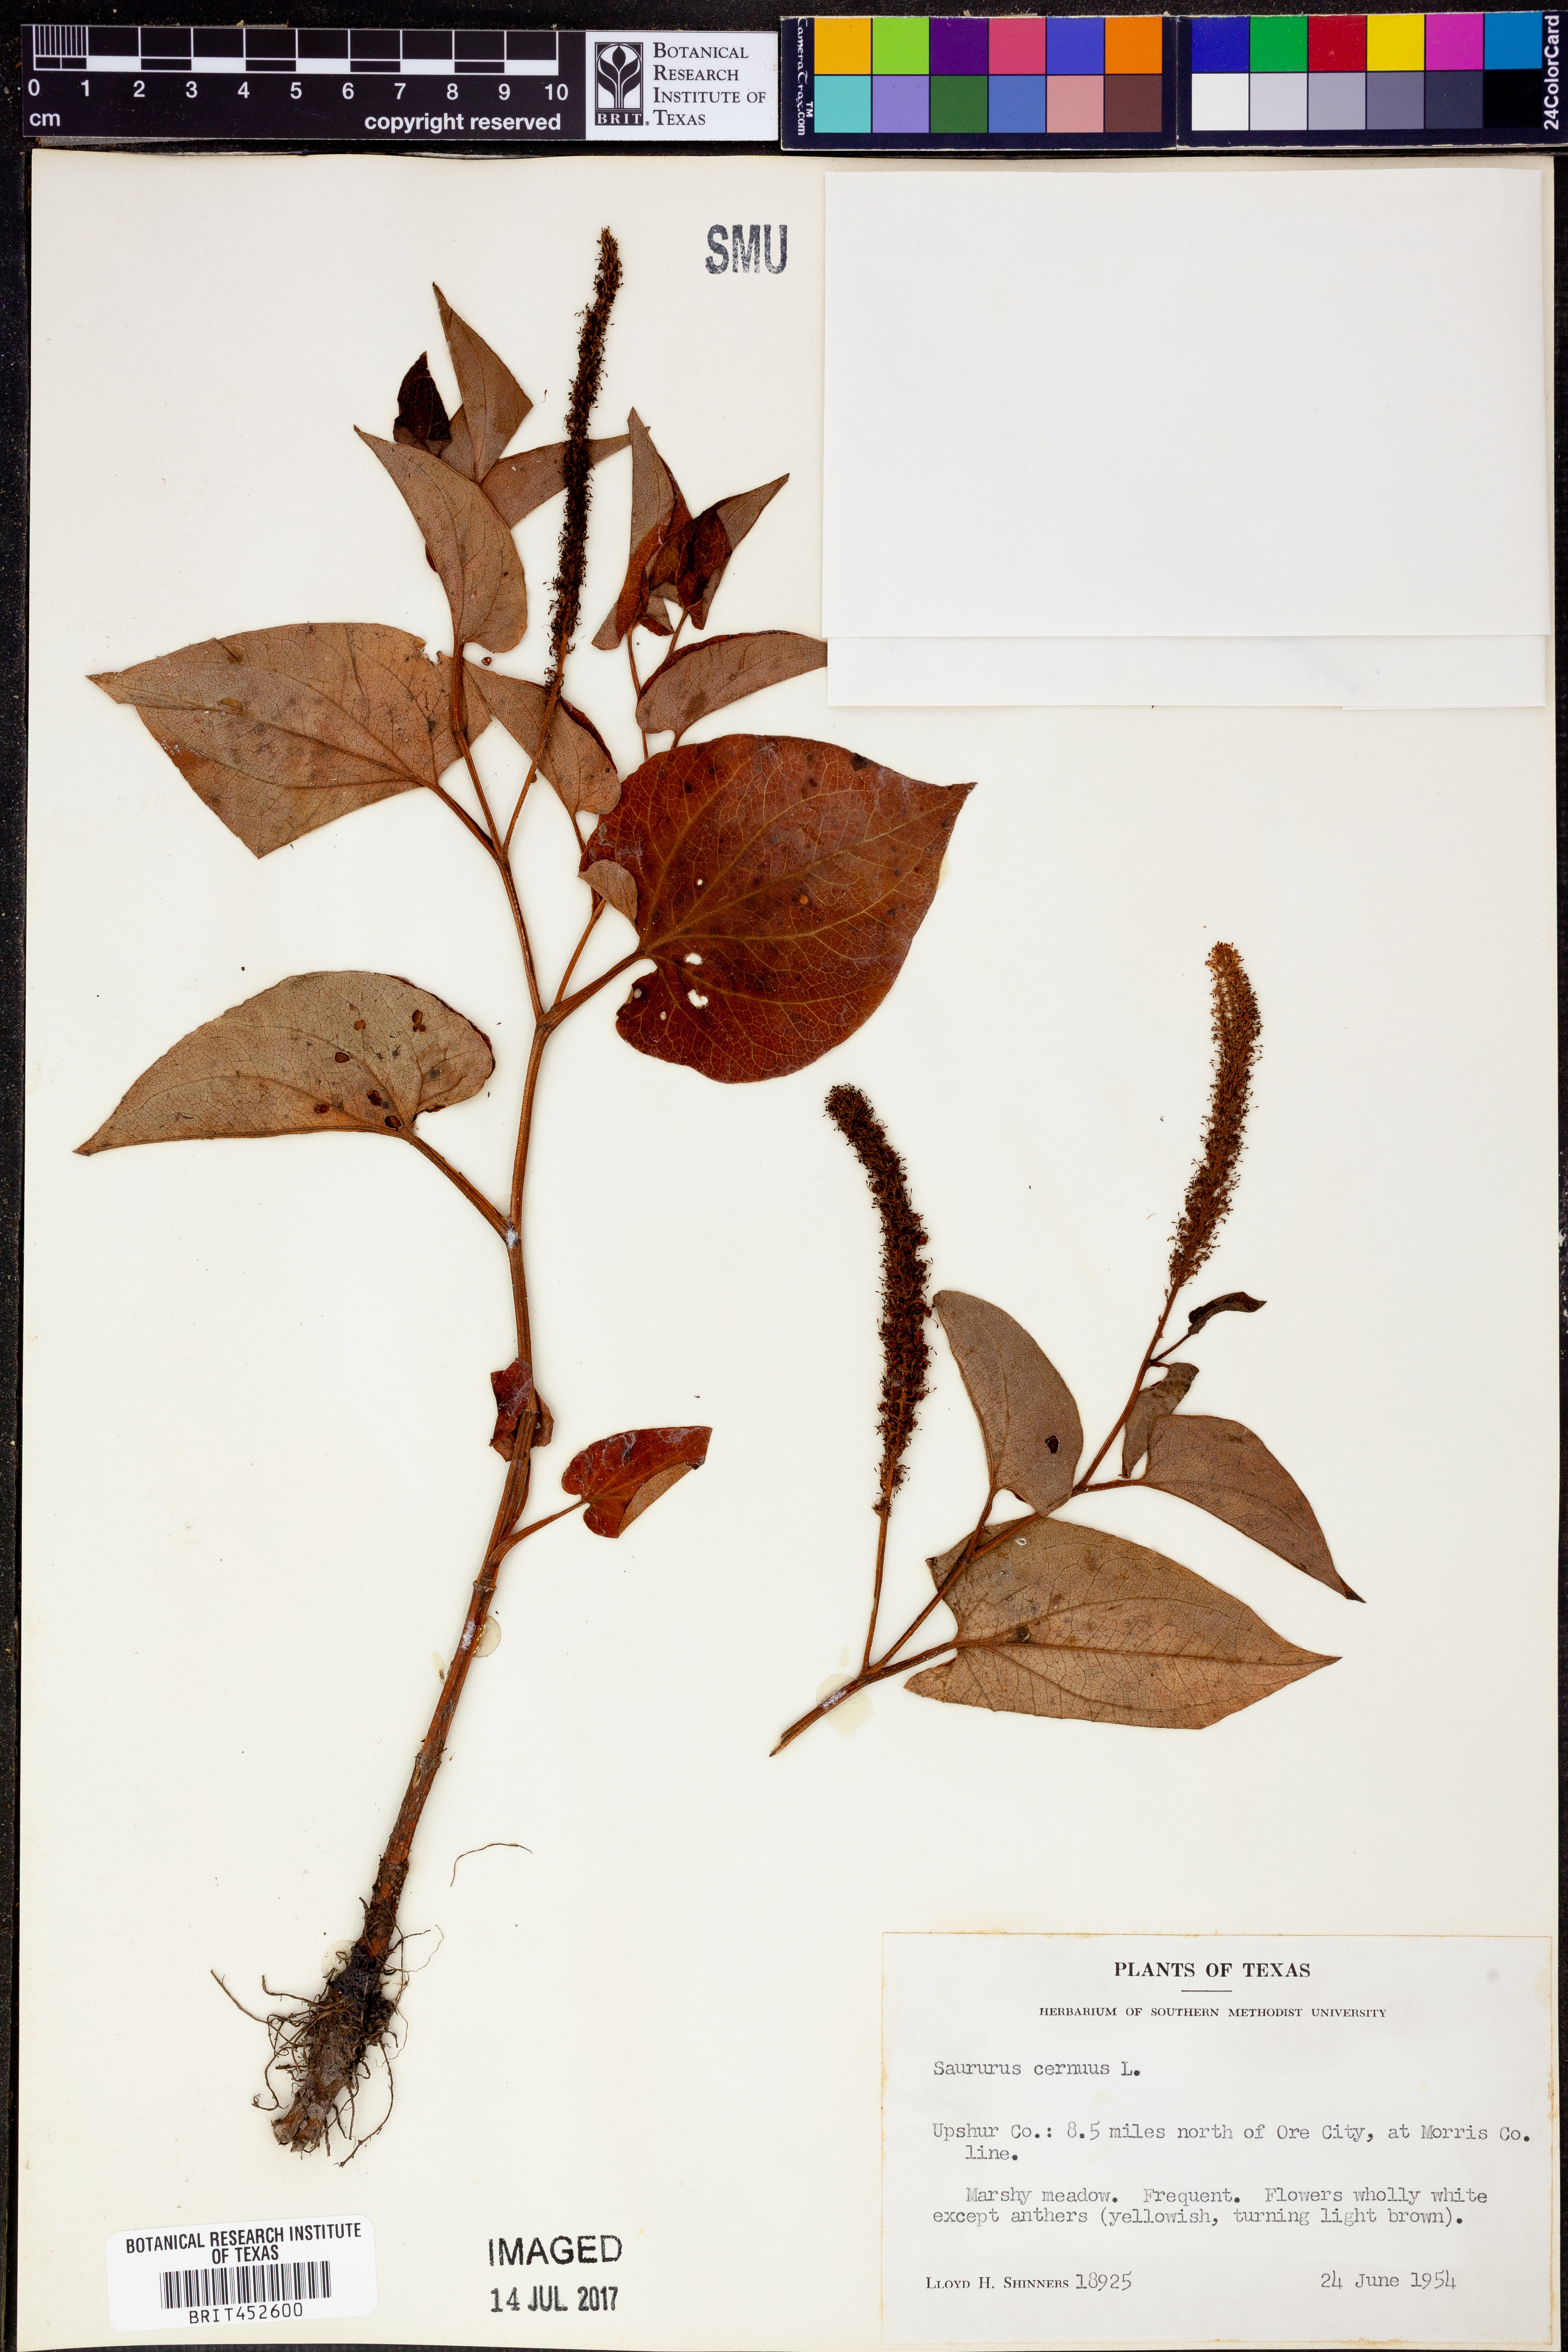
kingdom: Plantae
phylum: Tracheophyta
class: Magnoliopsida
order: Piperales
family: Saururaceae
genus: Saururus
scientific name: Saururus cernuus
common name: Lizard's-tail
